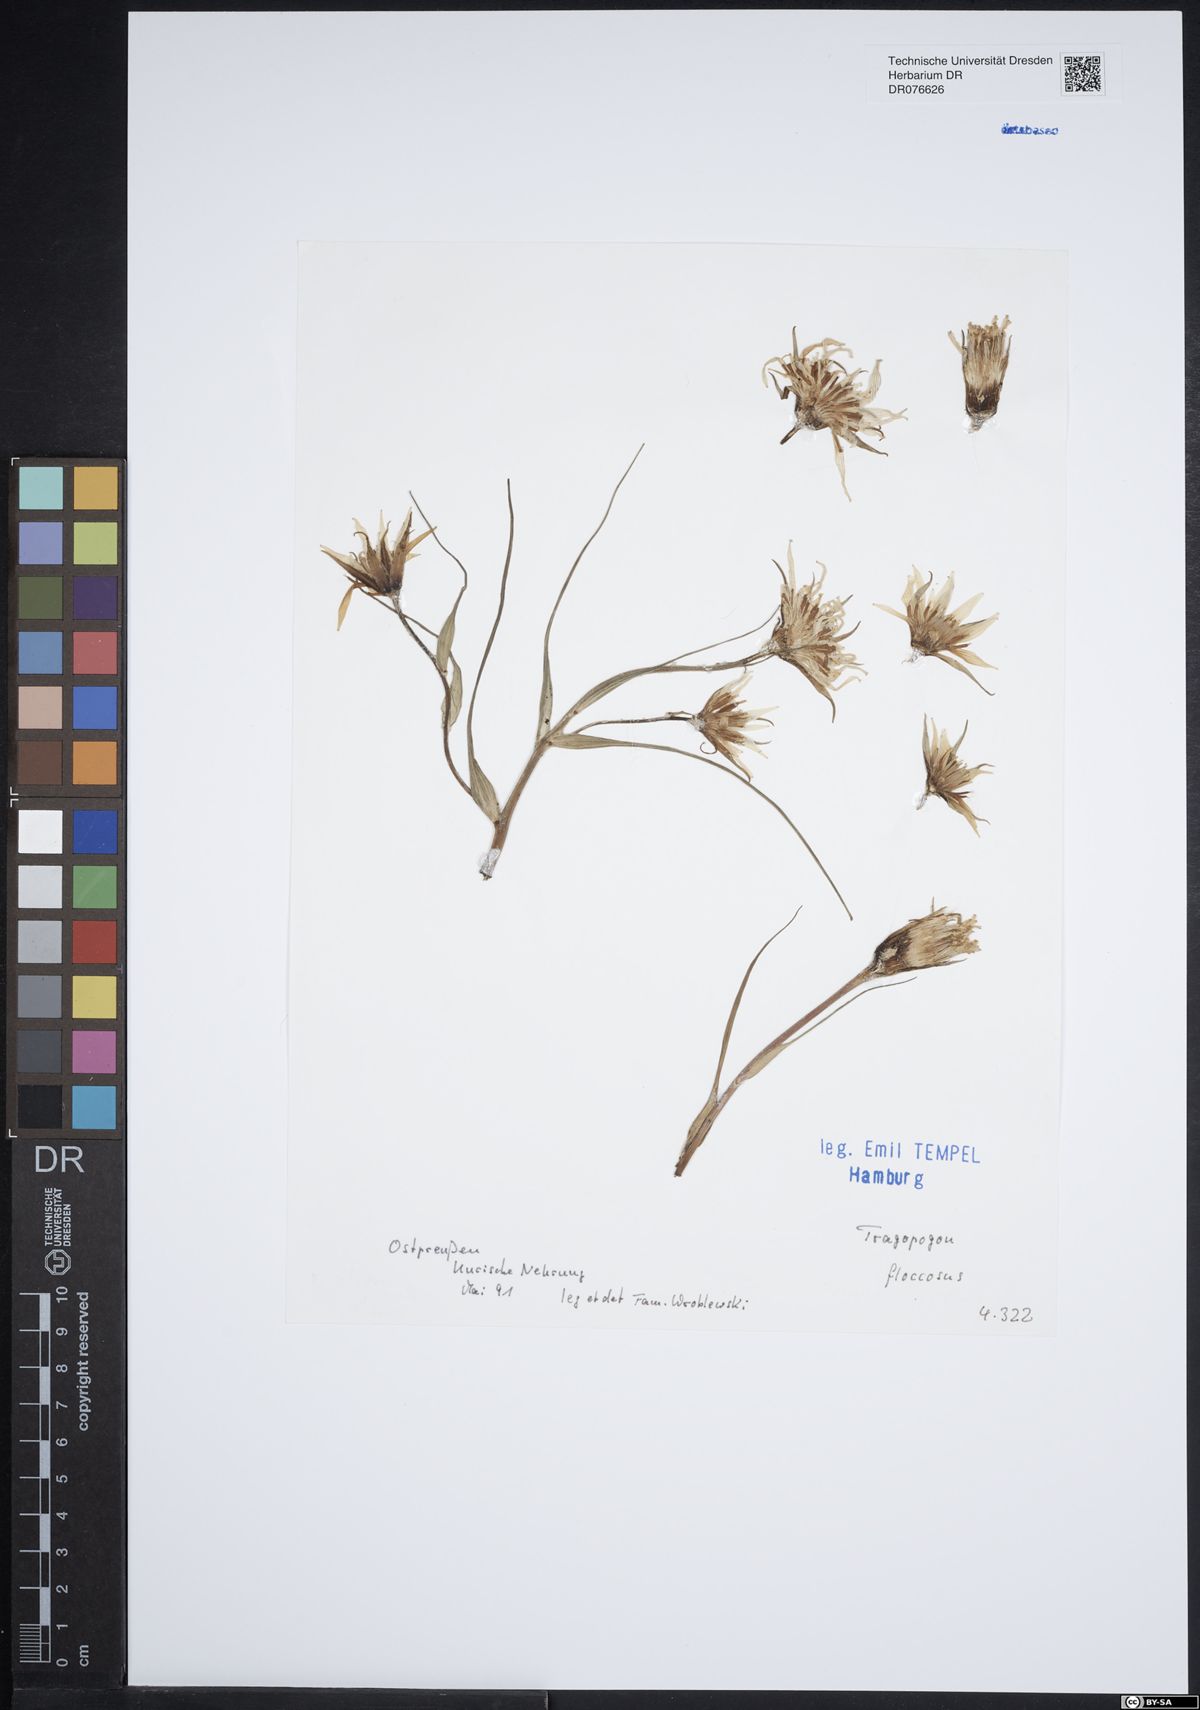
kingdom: Plantae
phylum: Tracheophyta
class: Magnoliopsida
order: Asterales
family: Asteraceae
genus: Tragopogon
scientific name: Tragopogon floccosus
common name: Woolly goatsbeard
